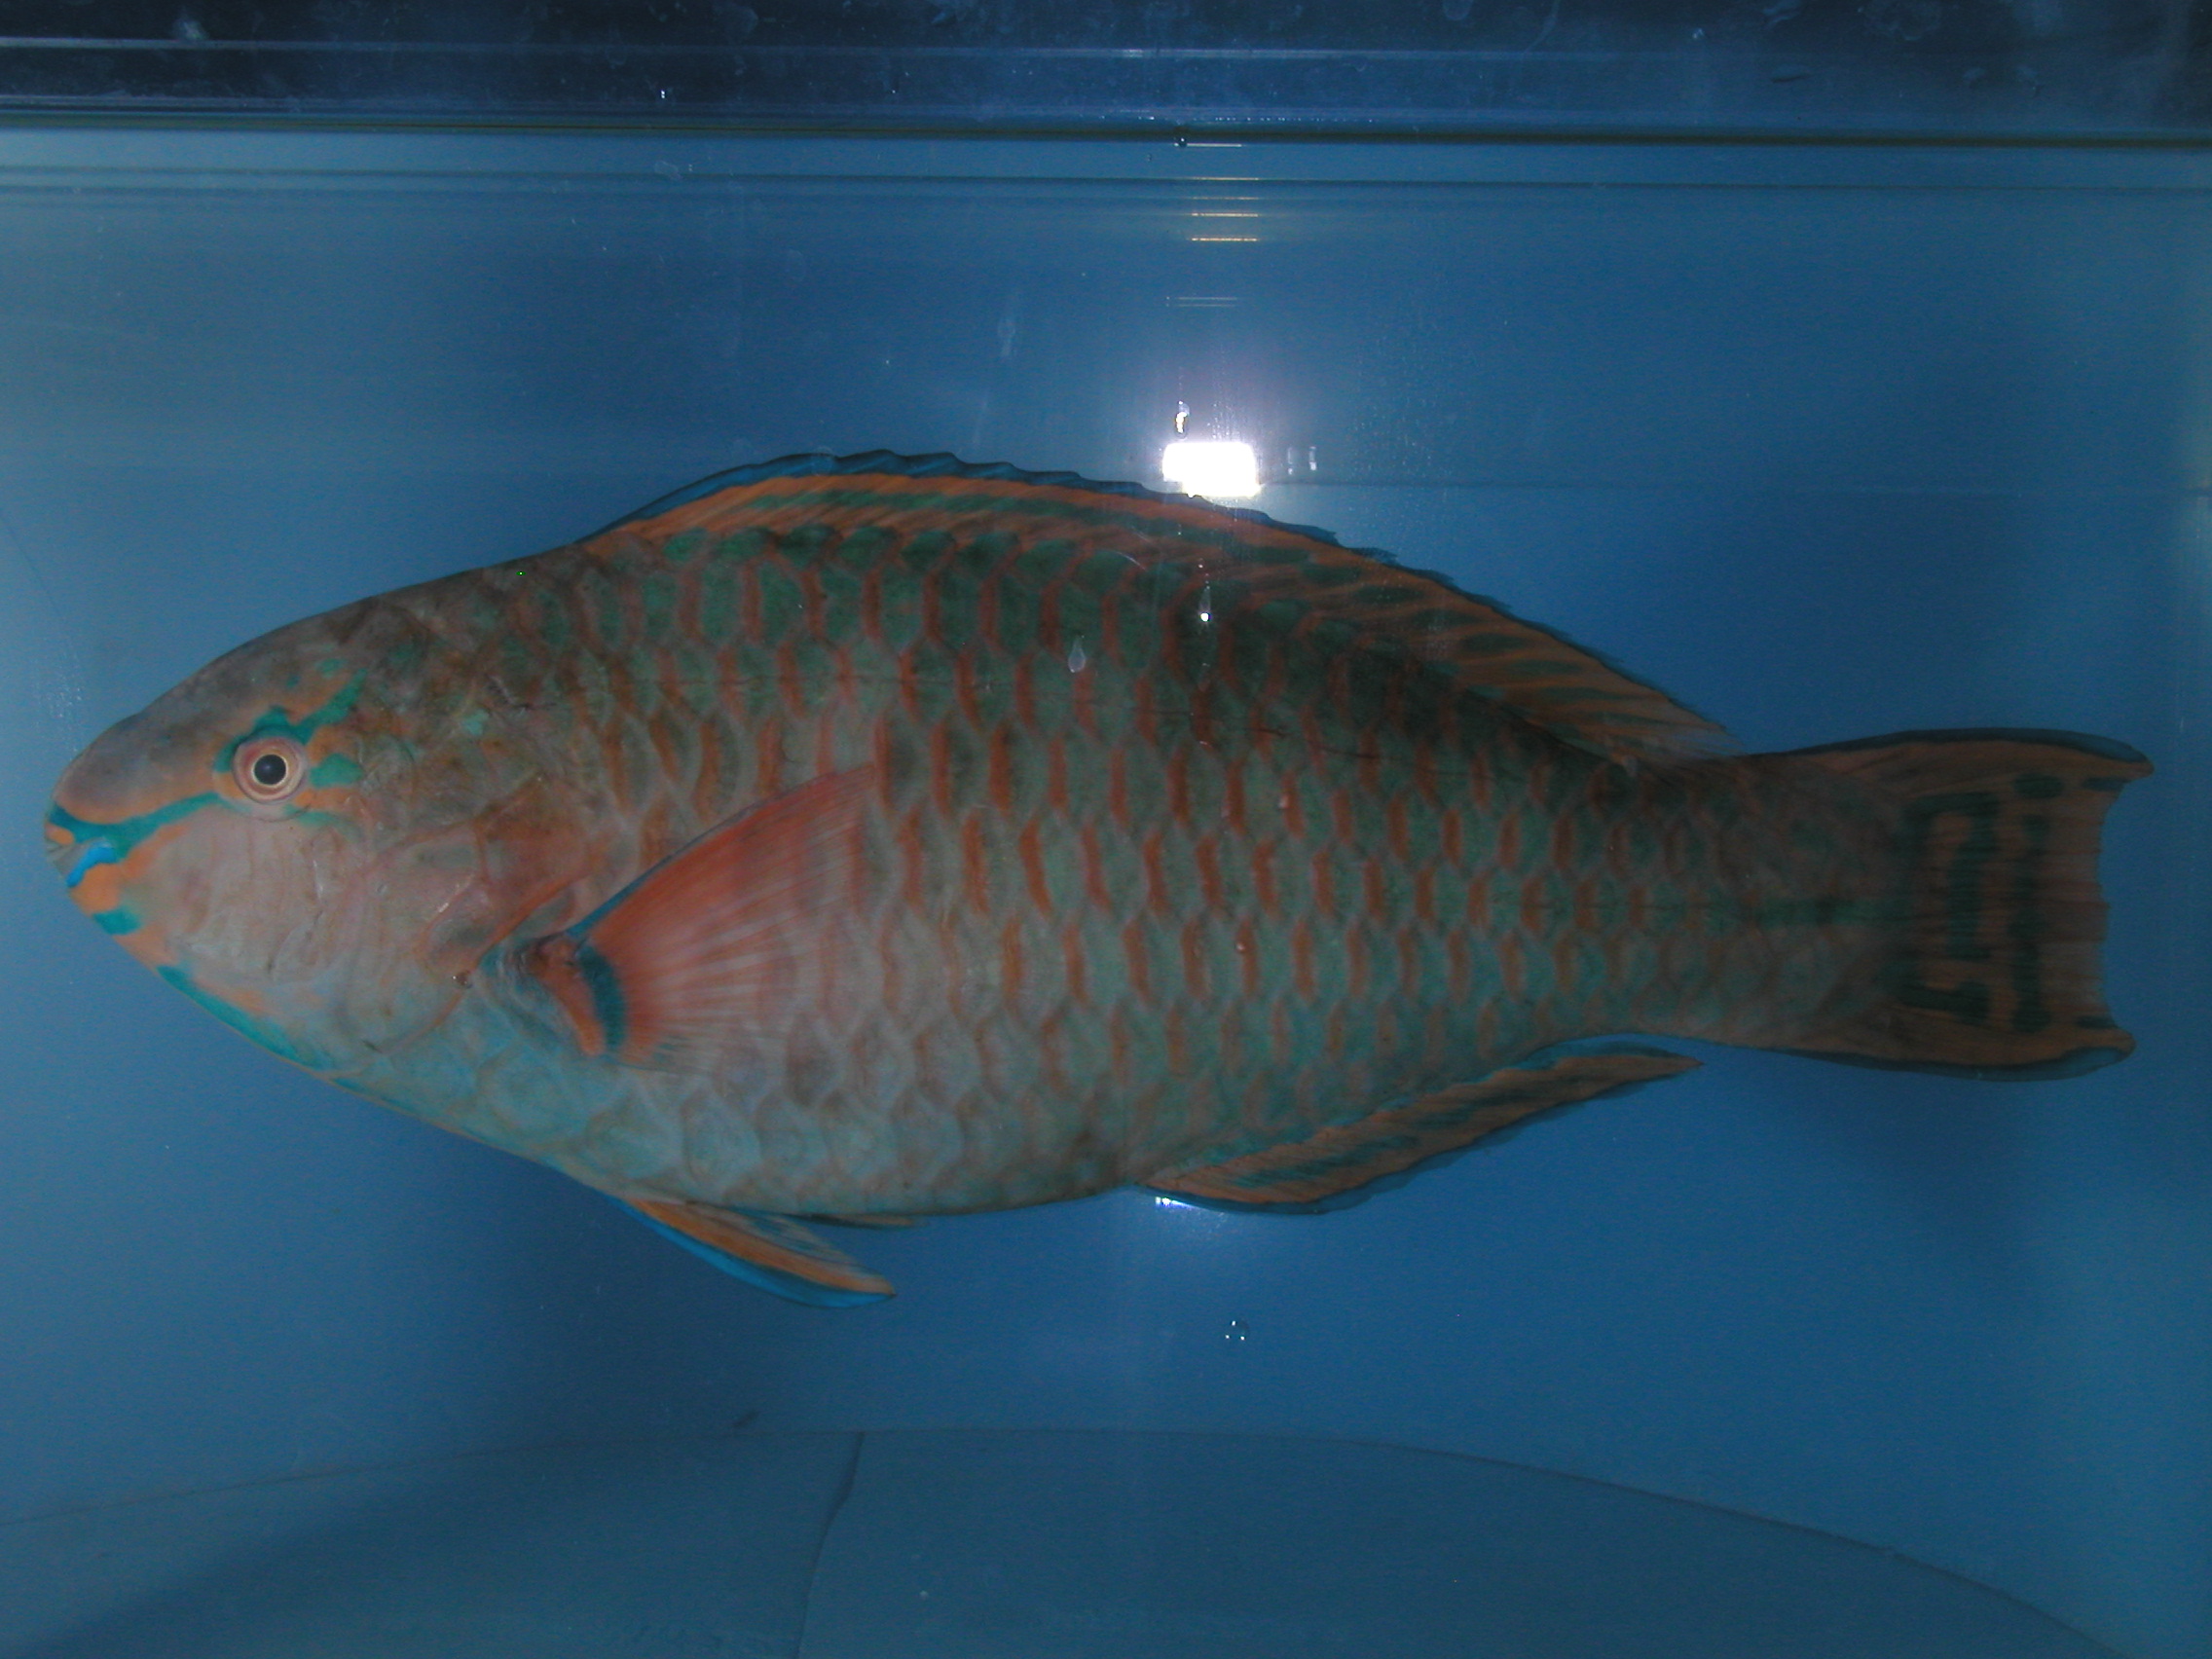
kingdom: Animalia
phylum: Chordata
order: Perciformes
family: Scaridae
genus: Scarus
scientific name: Scarus russelii
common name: Eclipse parrotfish
